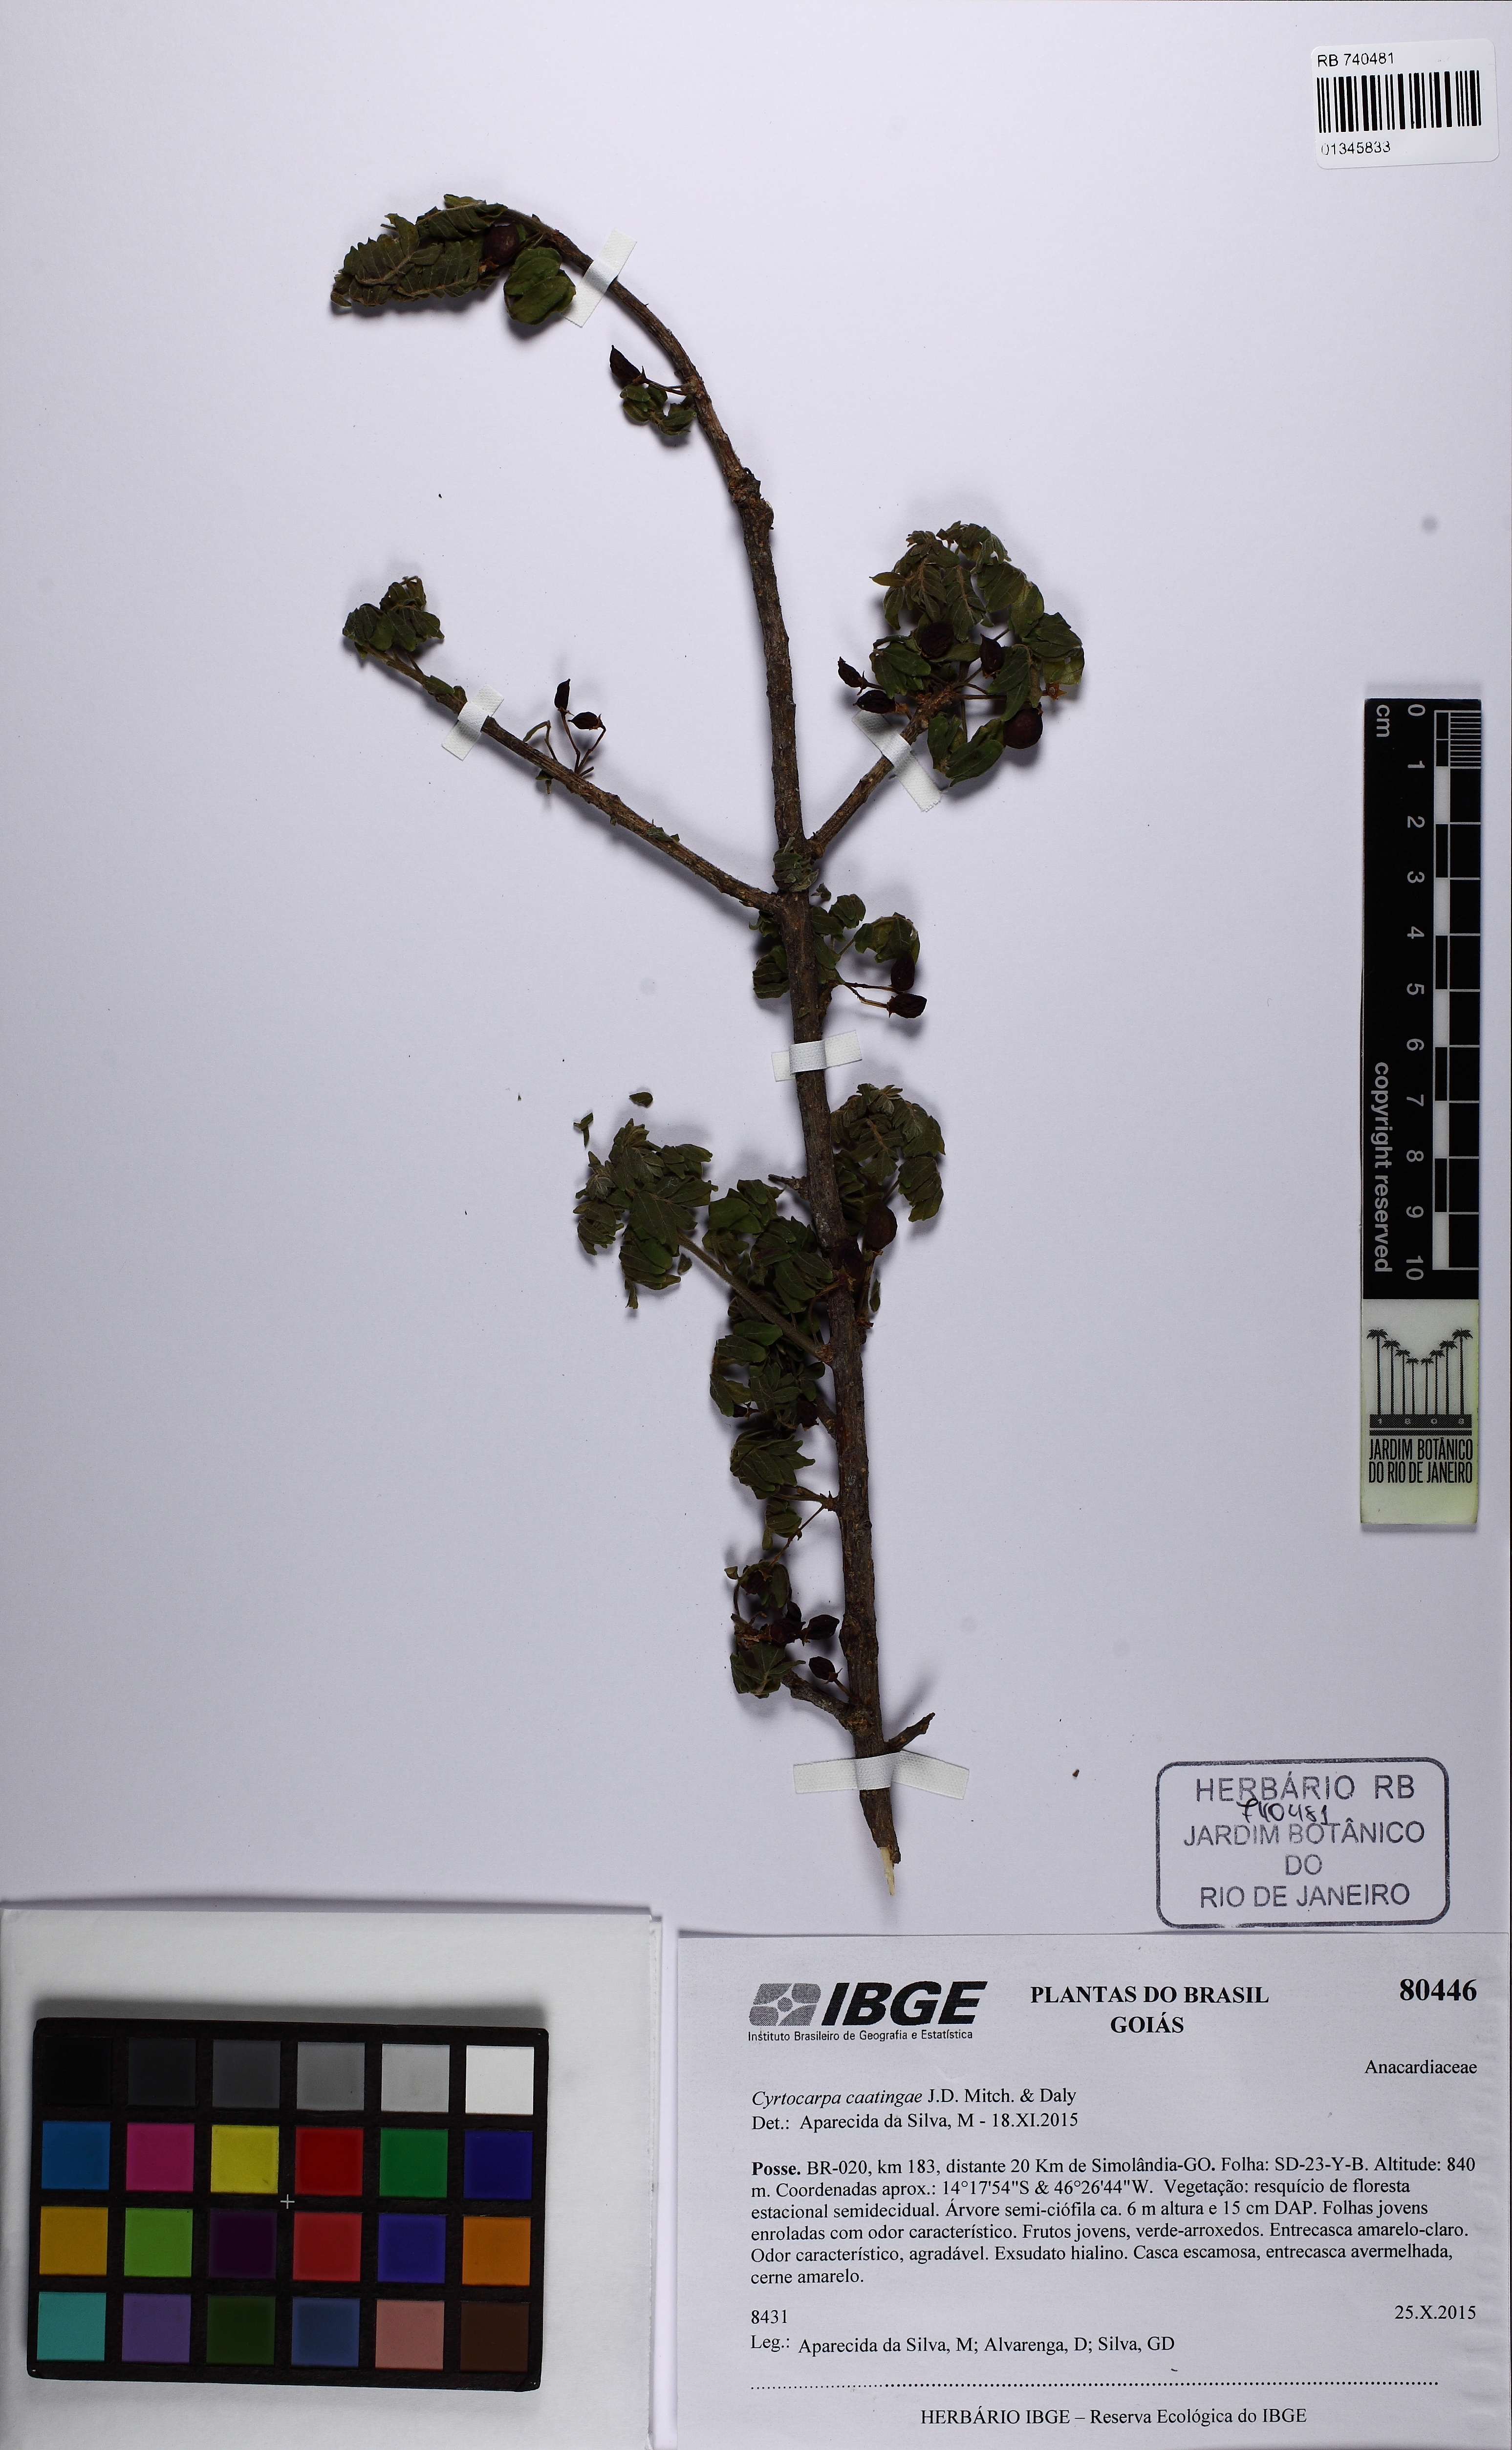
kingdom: Plantae
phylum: Tracheophyta
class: Magnoliopsida
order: Sapindales
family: Anacardiaceae
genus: Cyrtocarpa
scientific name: Cyrtocarpa caatingae
